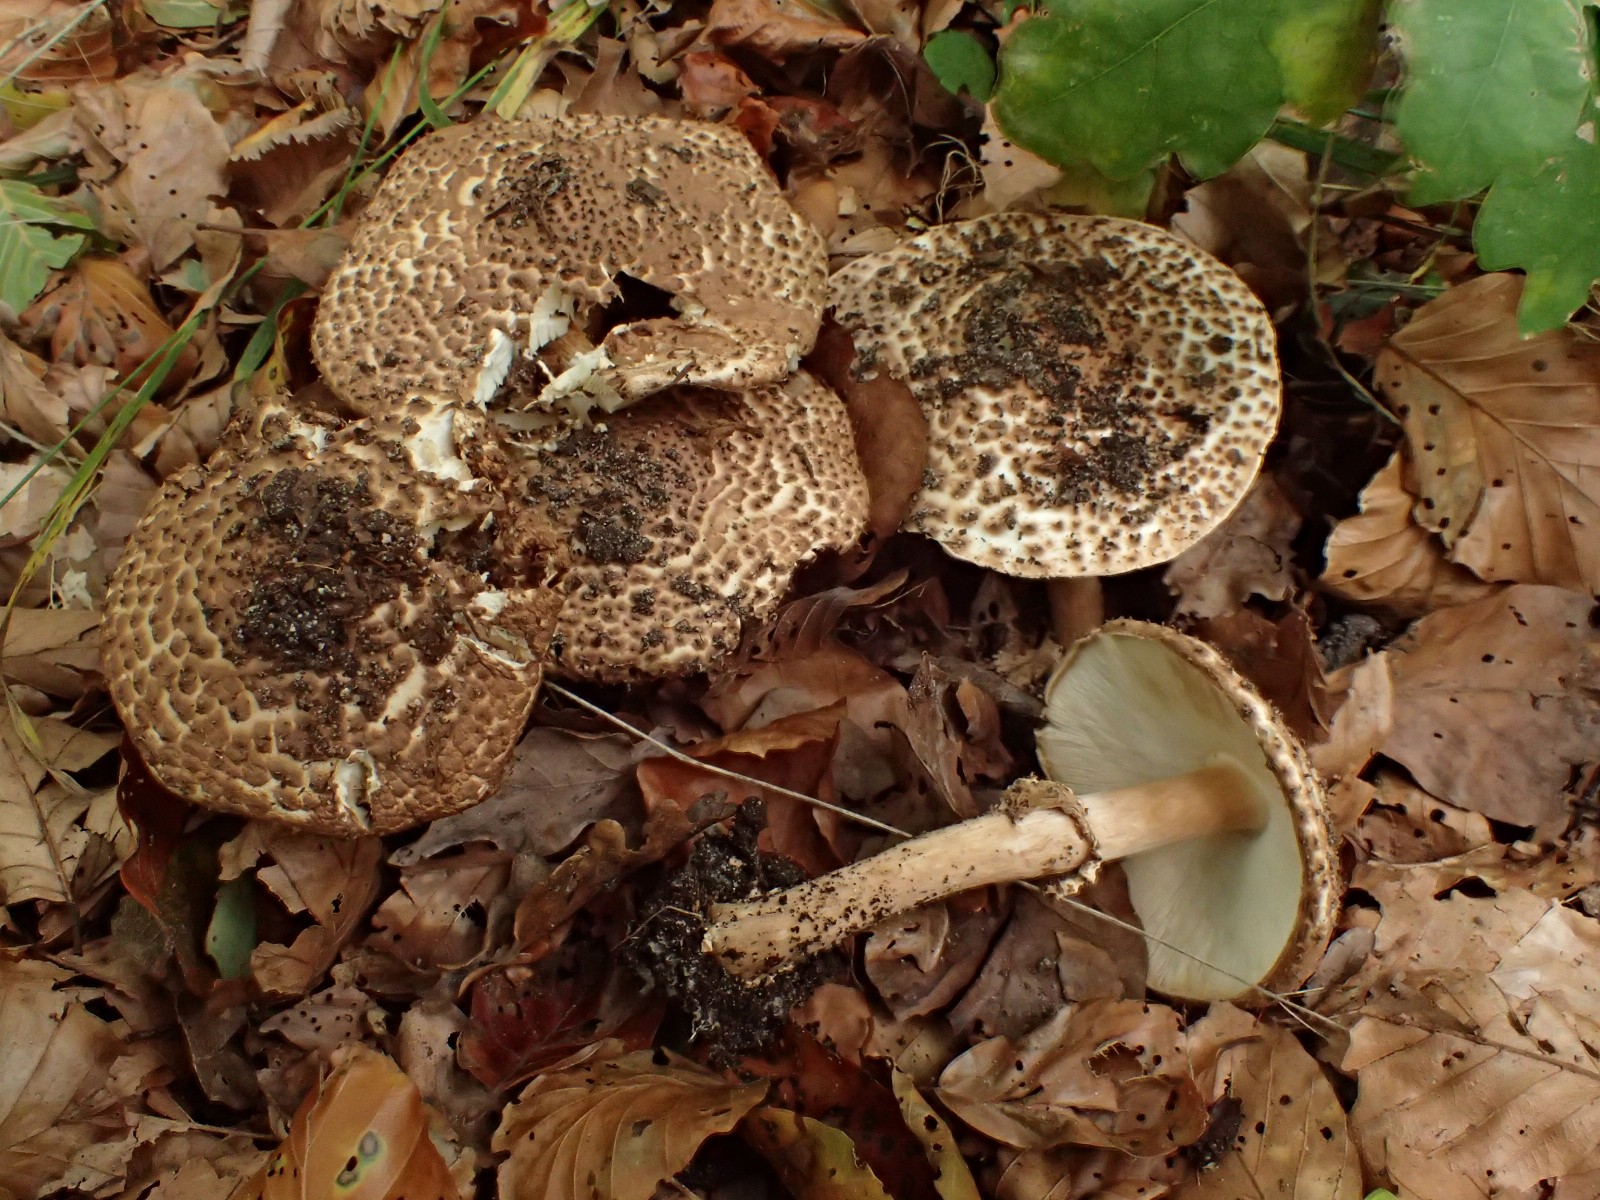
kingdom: Fungi
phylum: Basidiomycota
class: Agaricomycetes
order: Agaricales
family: Agaricaceae
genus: Echinoderma
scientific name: Echinoderma asperum
